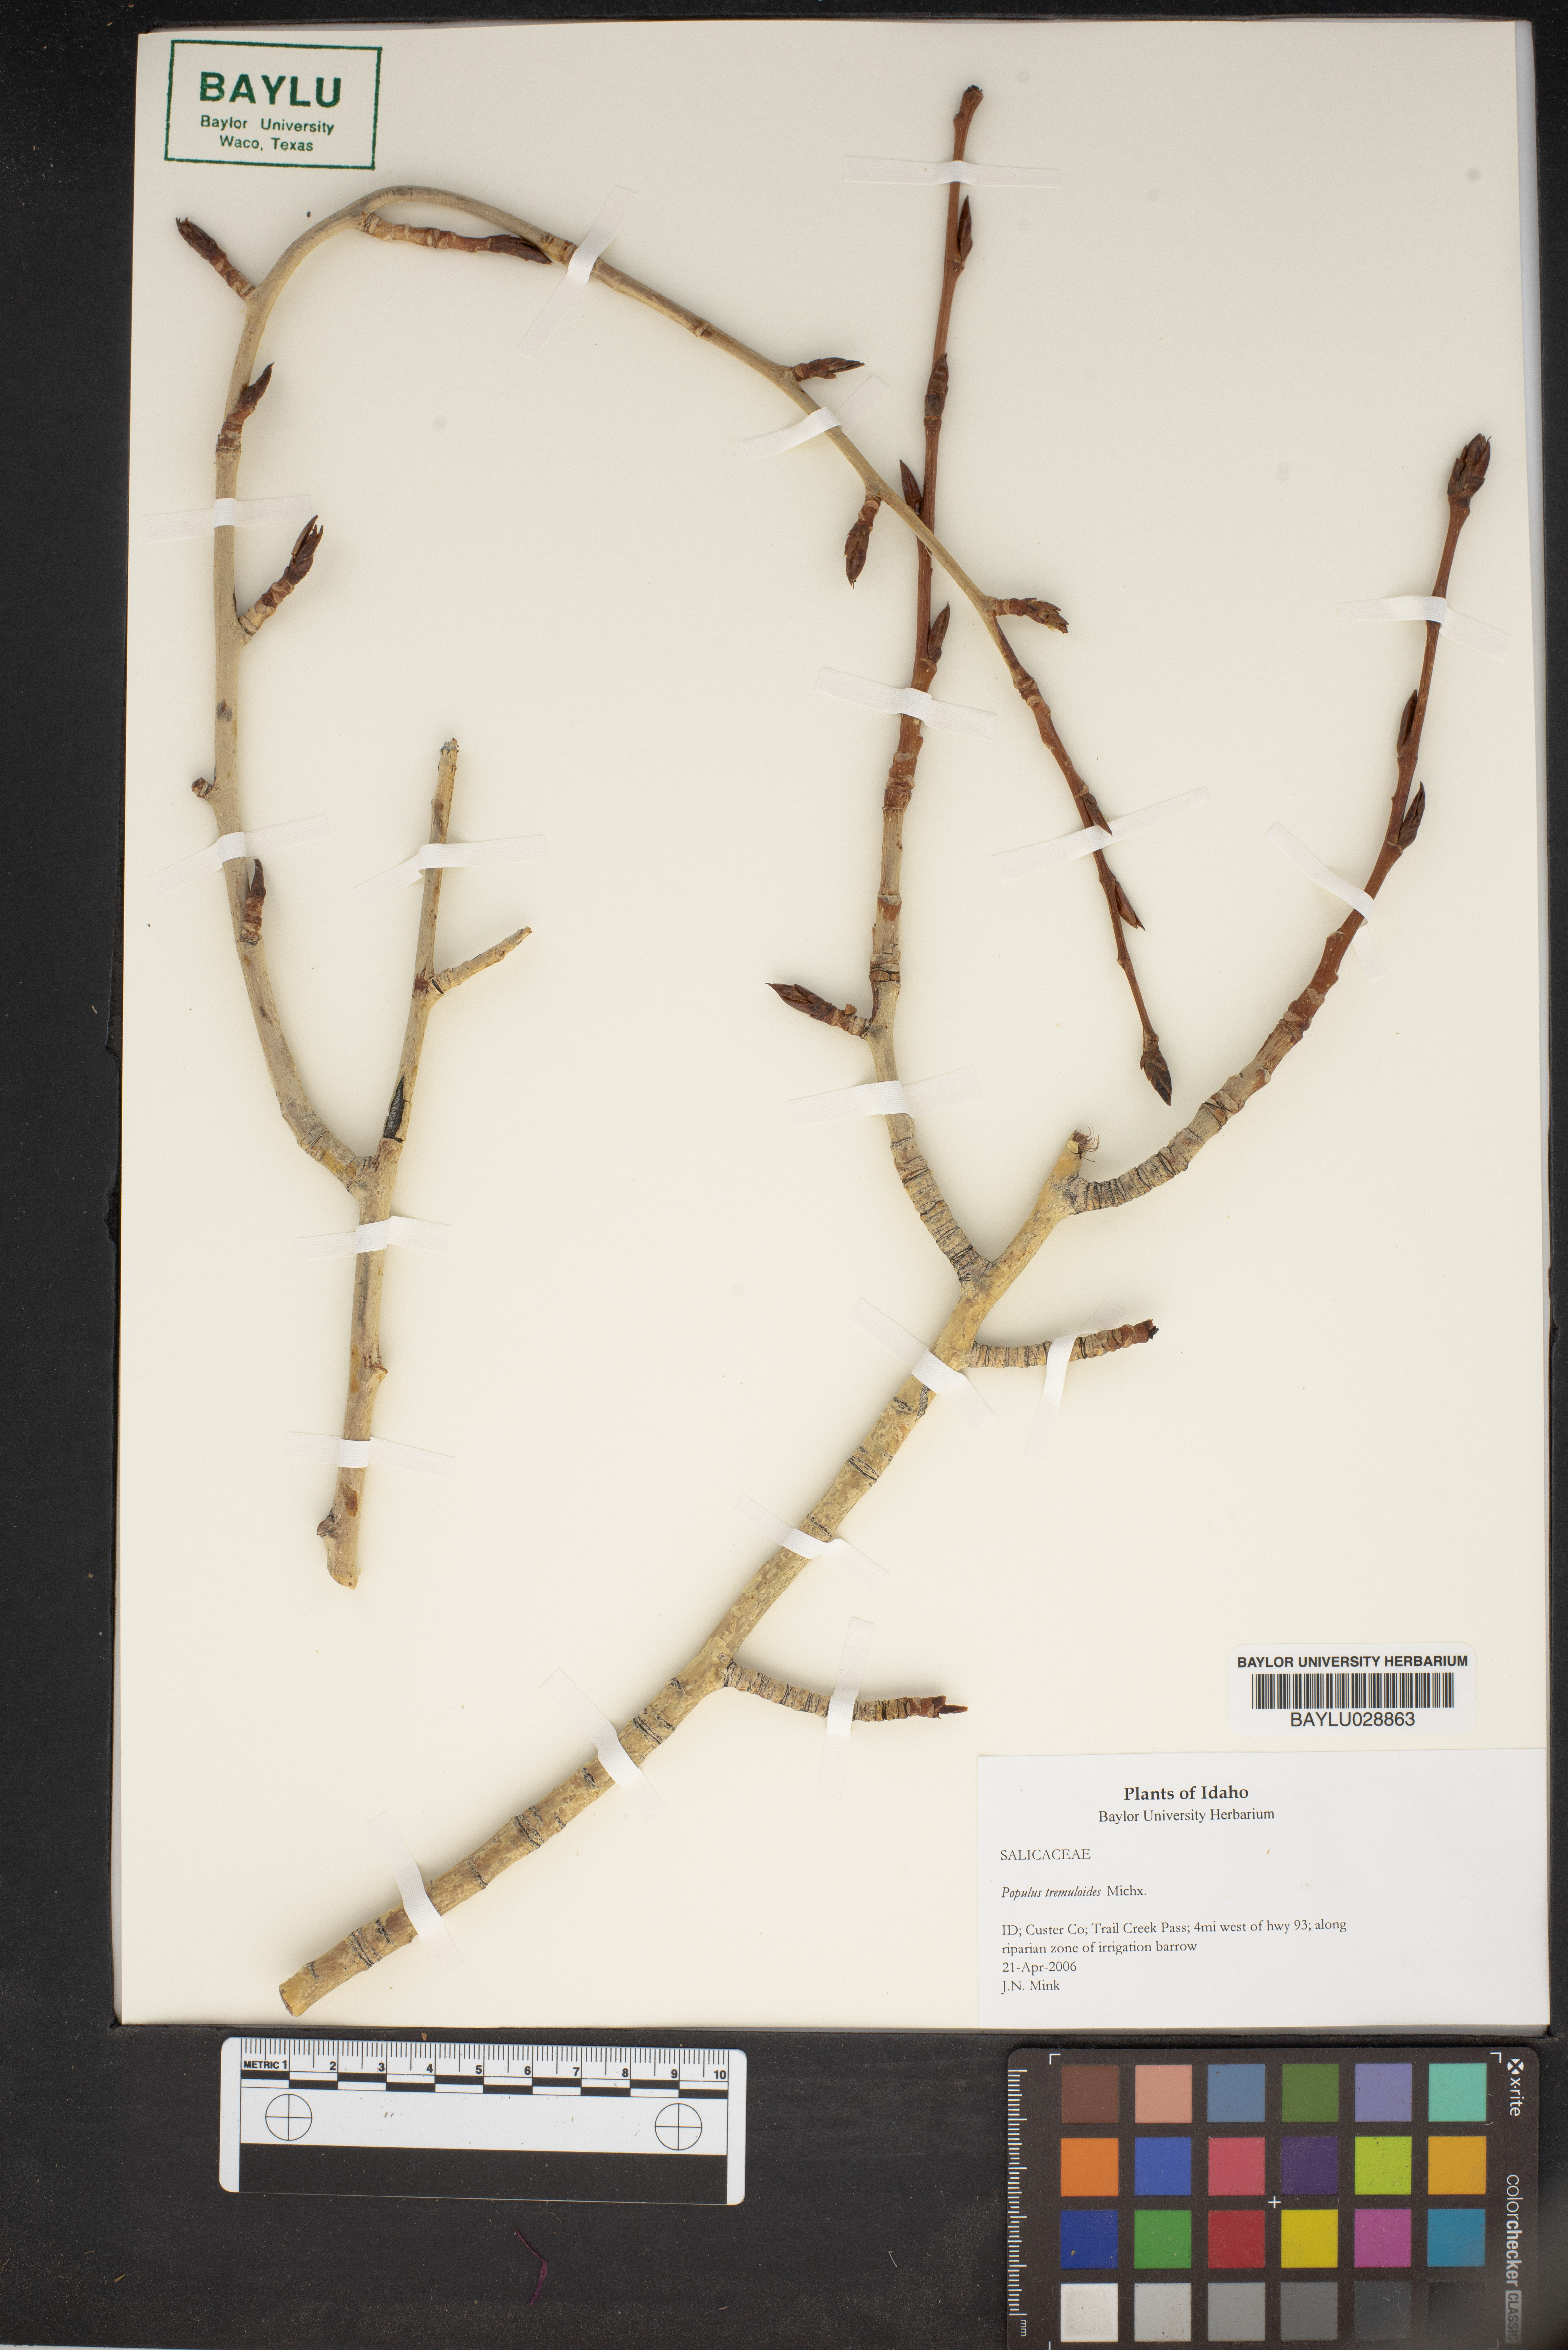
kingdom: Plantae
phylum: Tracheophyta
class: Magnoliopsida
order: Malpighiales
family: Salicaceae
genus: Populus
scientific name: Populus tremuloides
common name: Quaking aspen
